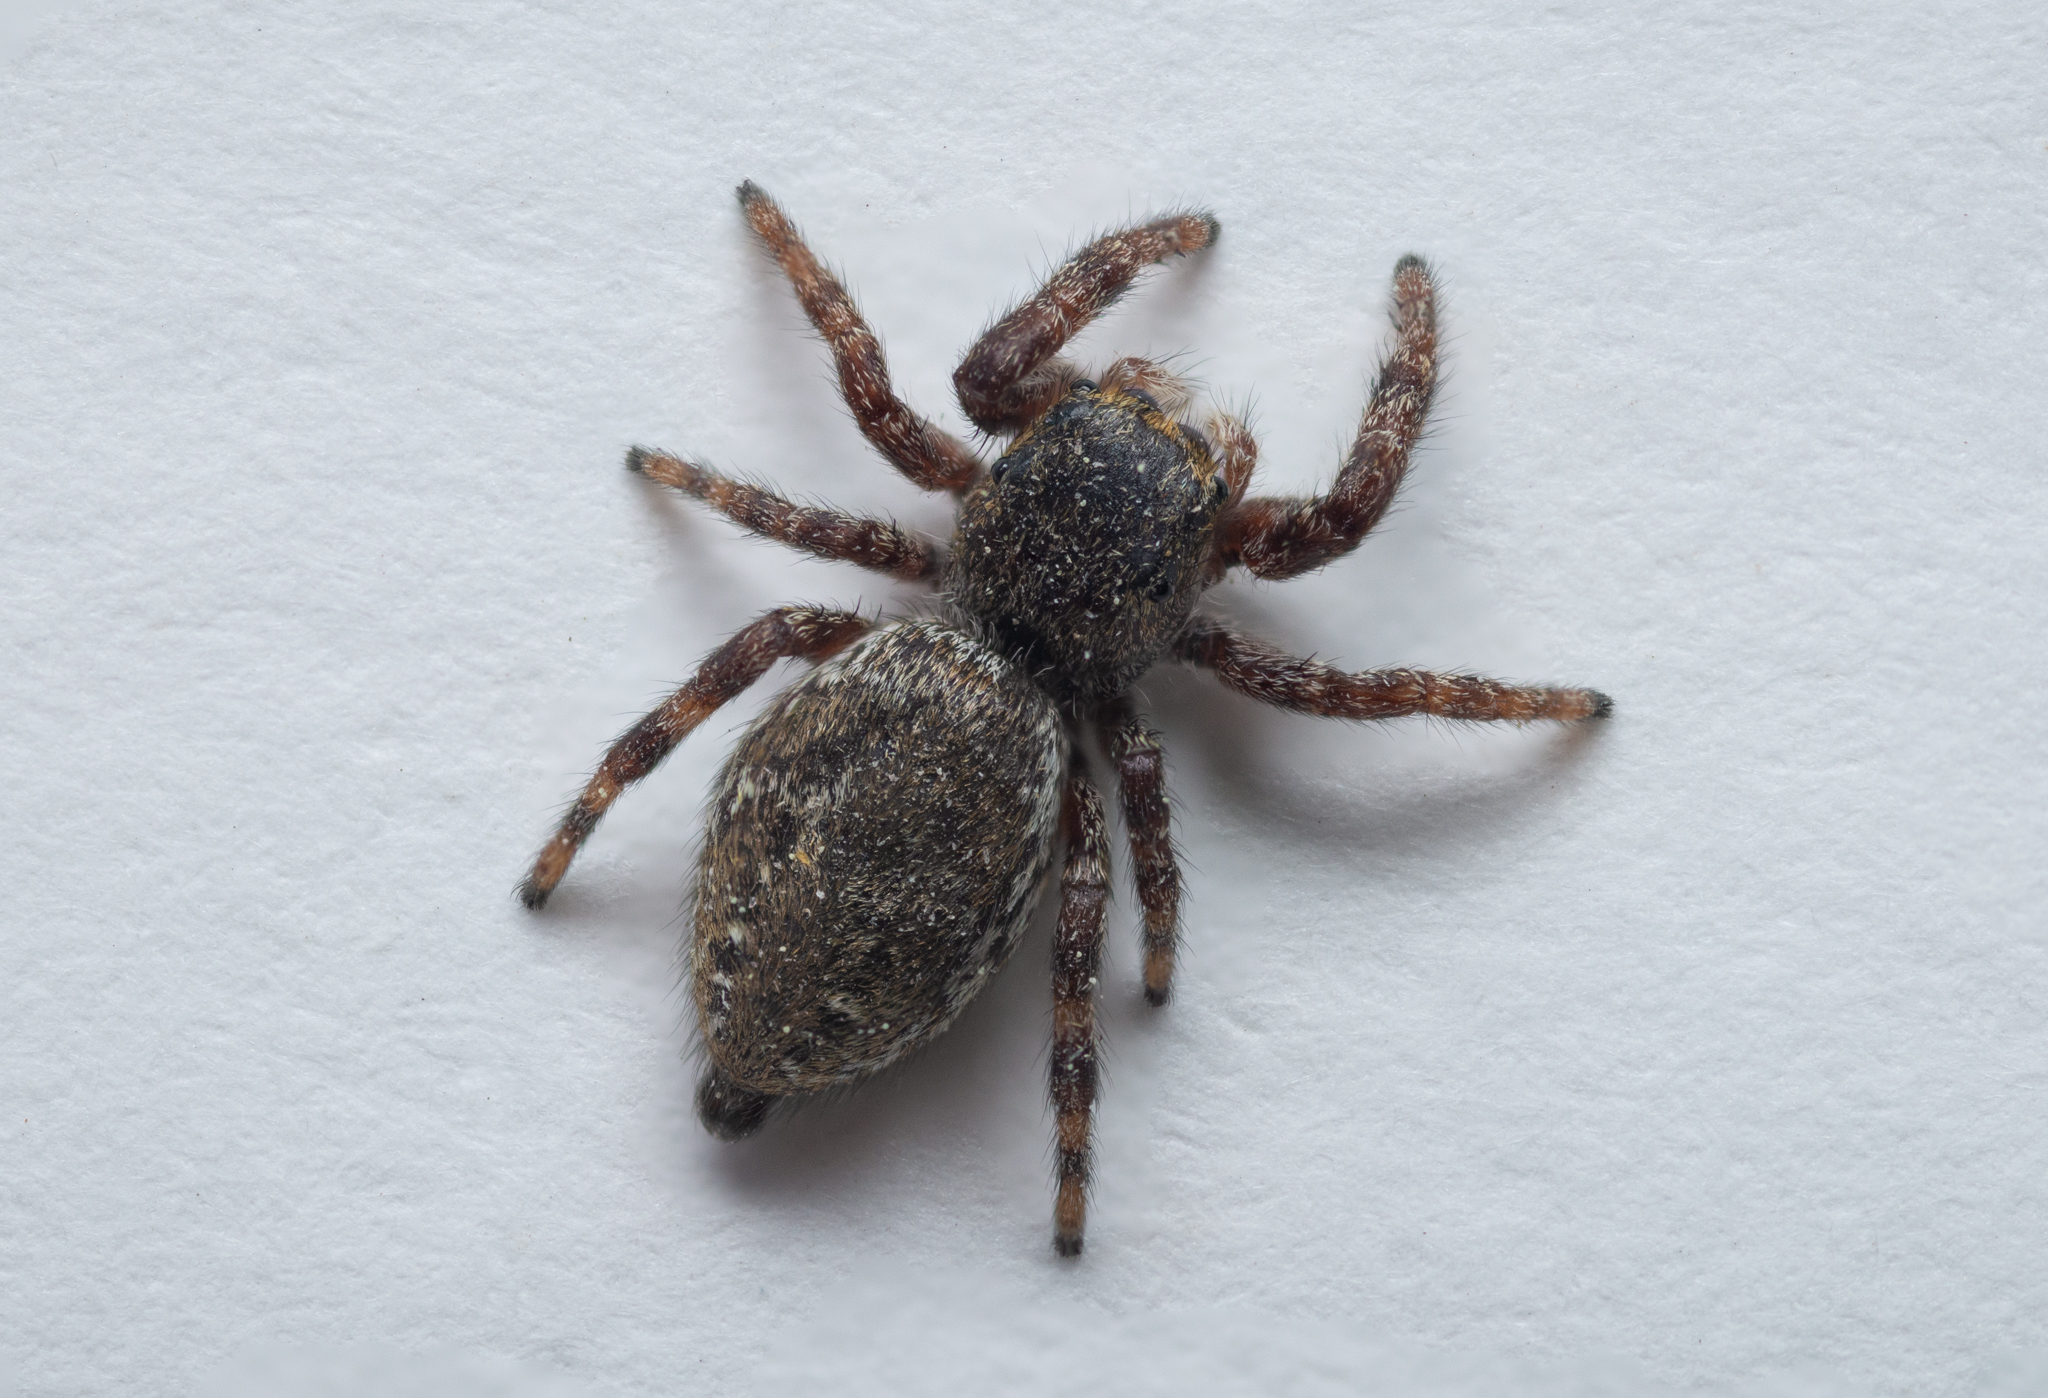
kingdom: Animalia
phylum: Arthropoda
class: Arachnida
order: Araneae
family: Salticidae
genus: Dendryphantes
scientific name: Dendryphantes rudis
